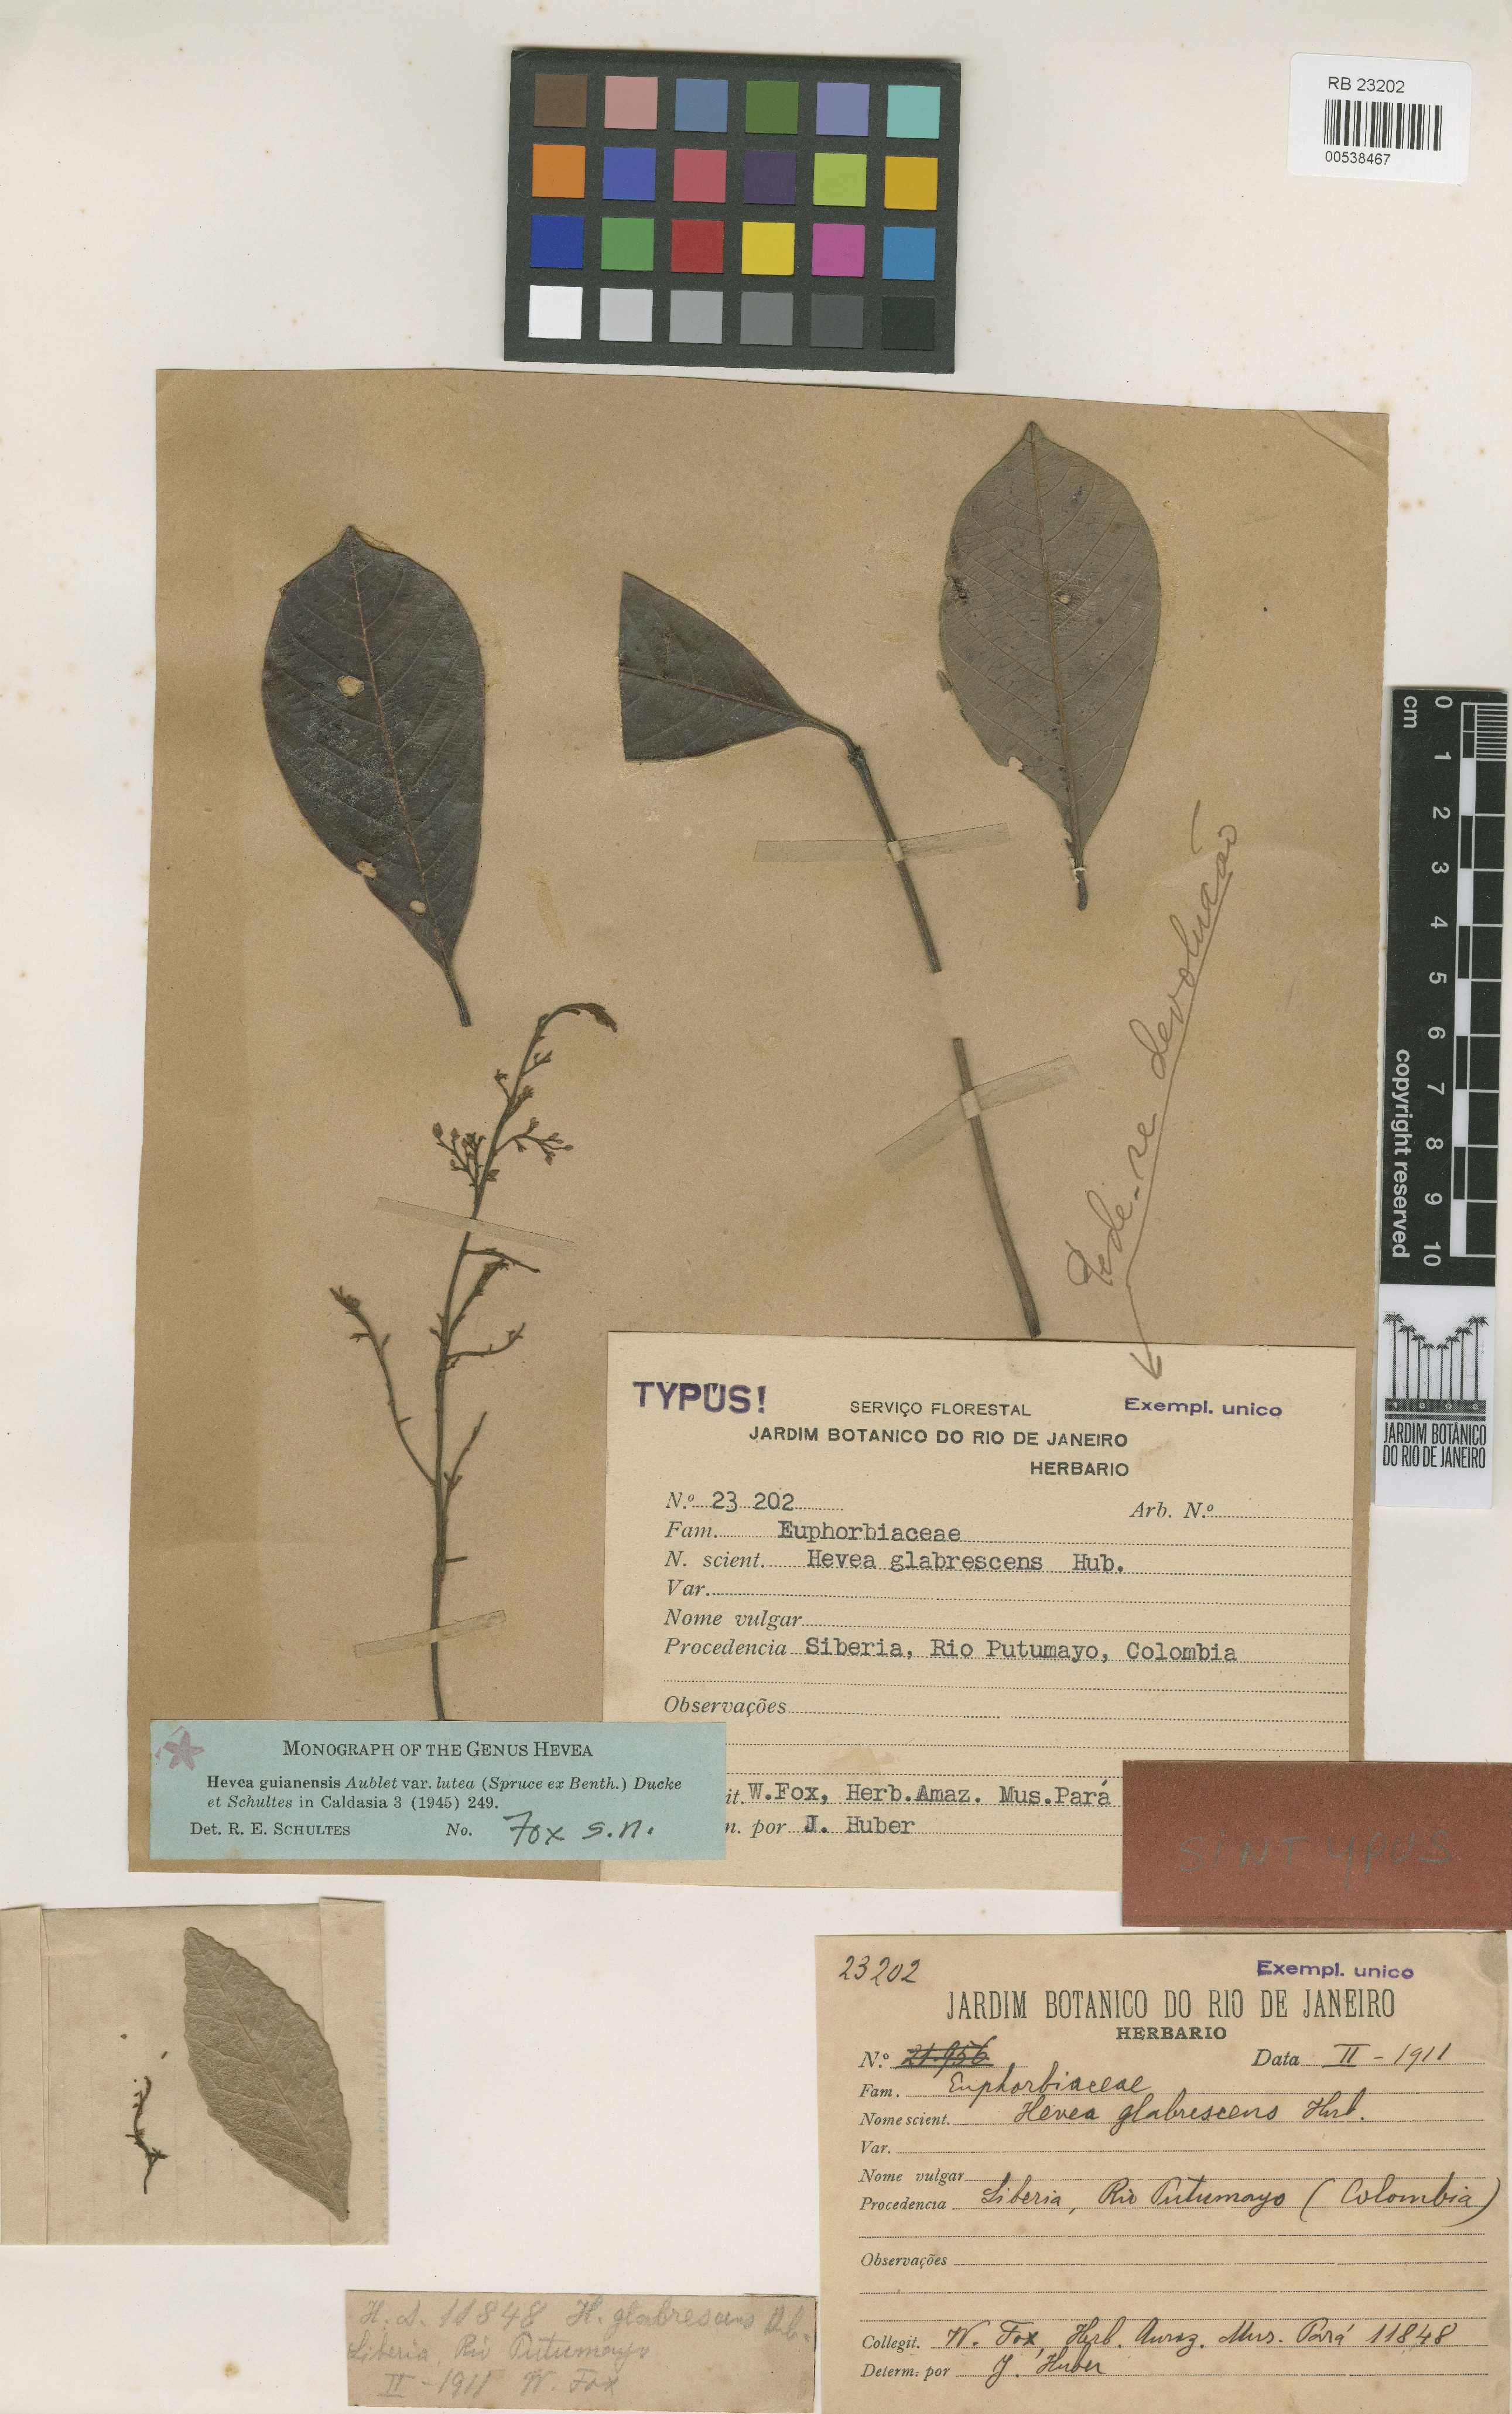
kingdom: Plantae
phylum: Tracheophyta
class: Magnoliopsida
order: Malpighiales
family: Euphorbiaceae
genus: Hevea
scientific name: Hevea guianensis
